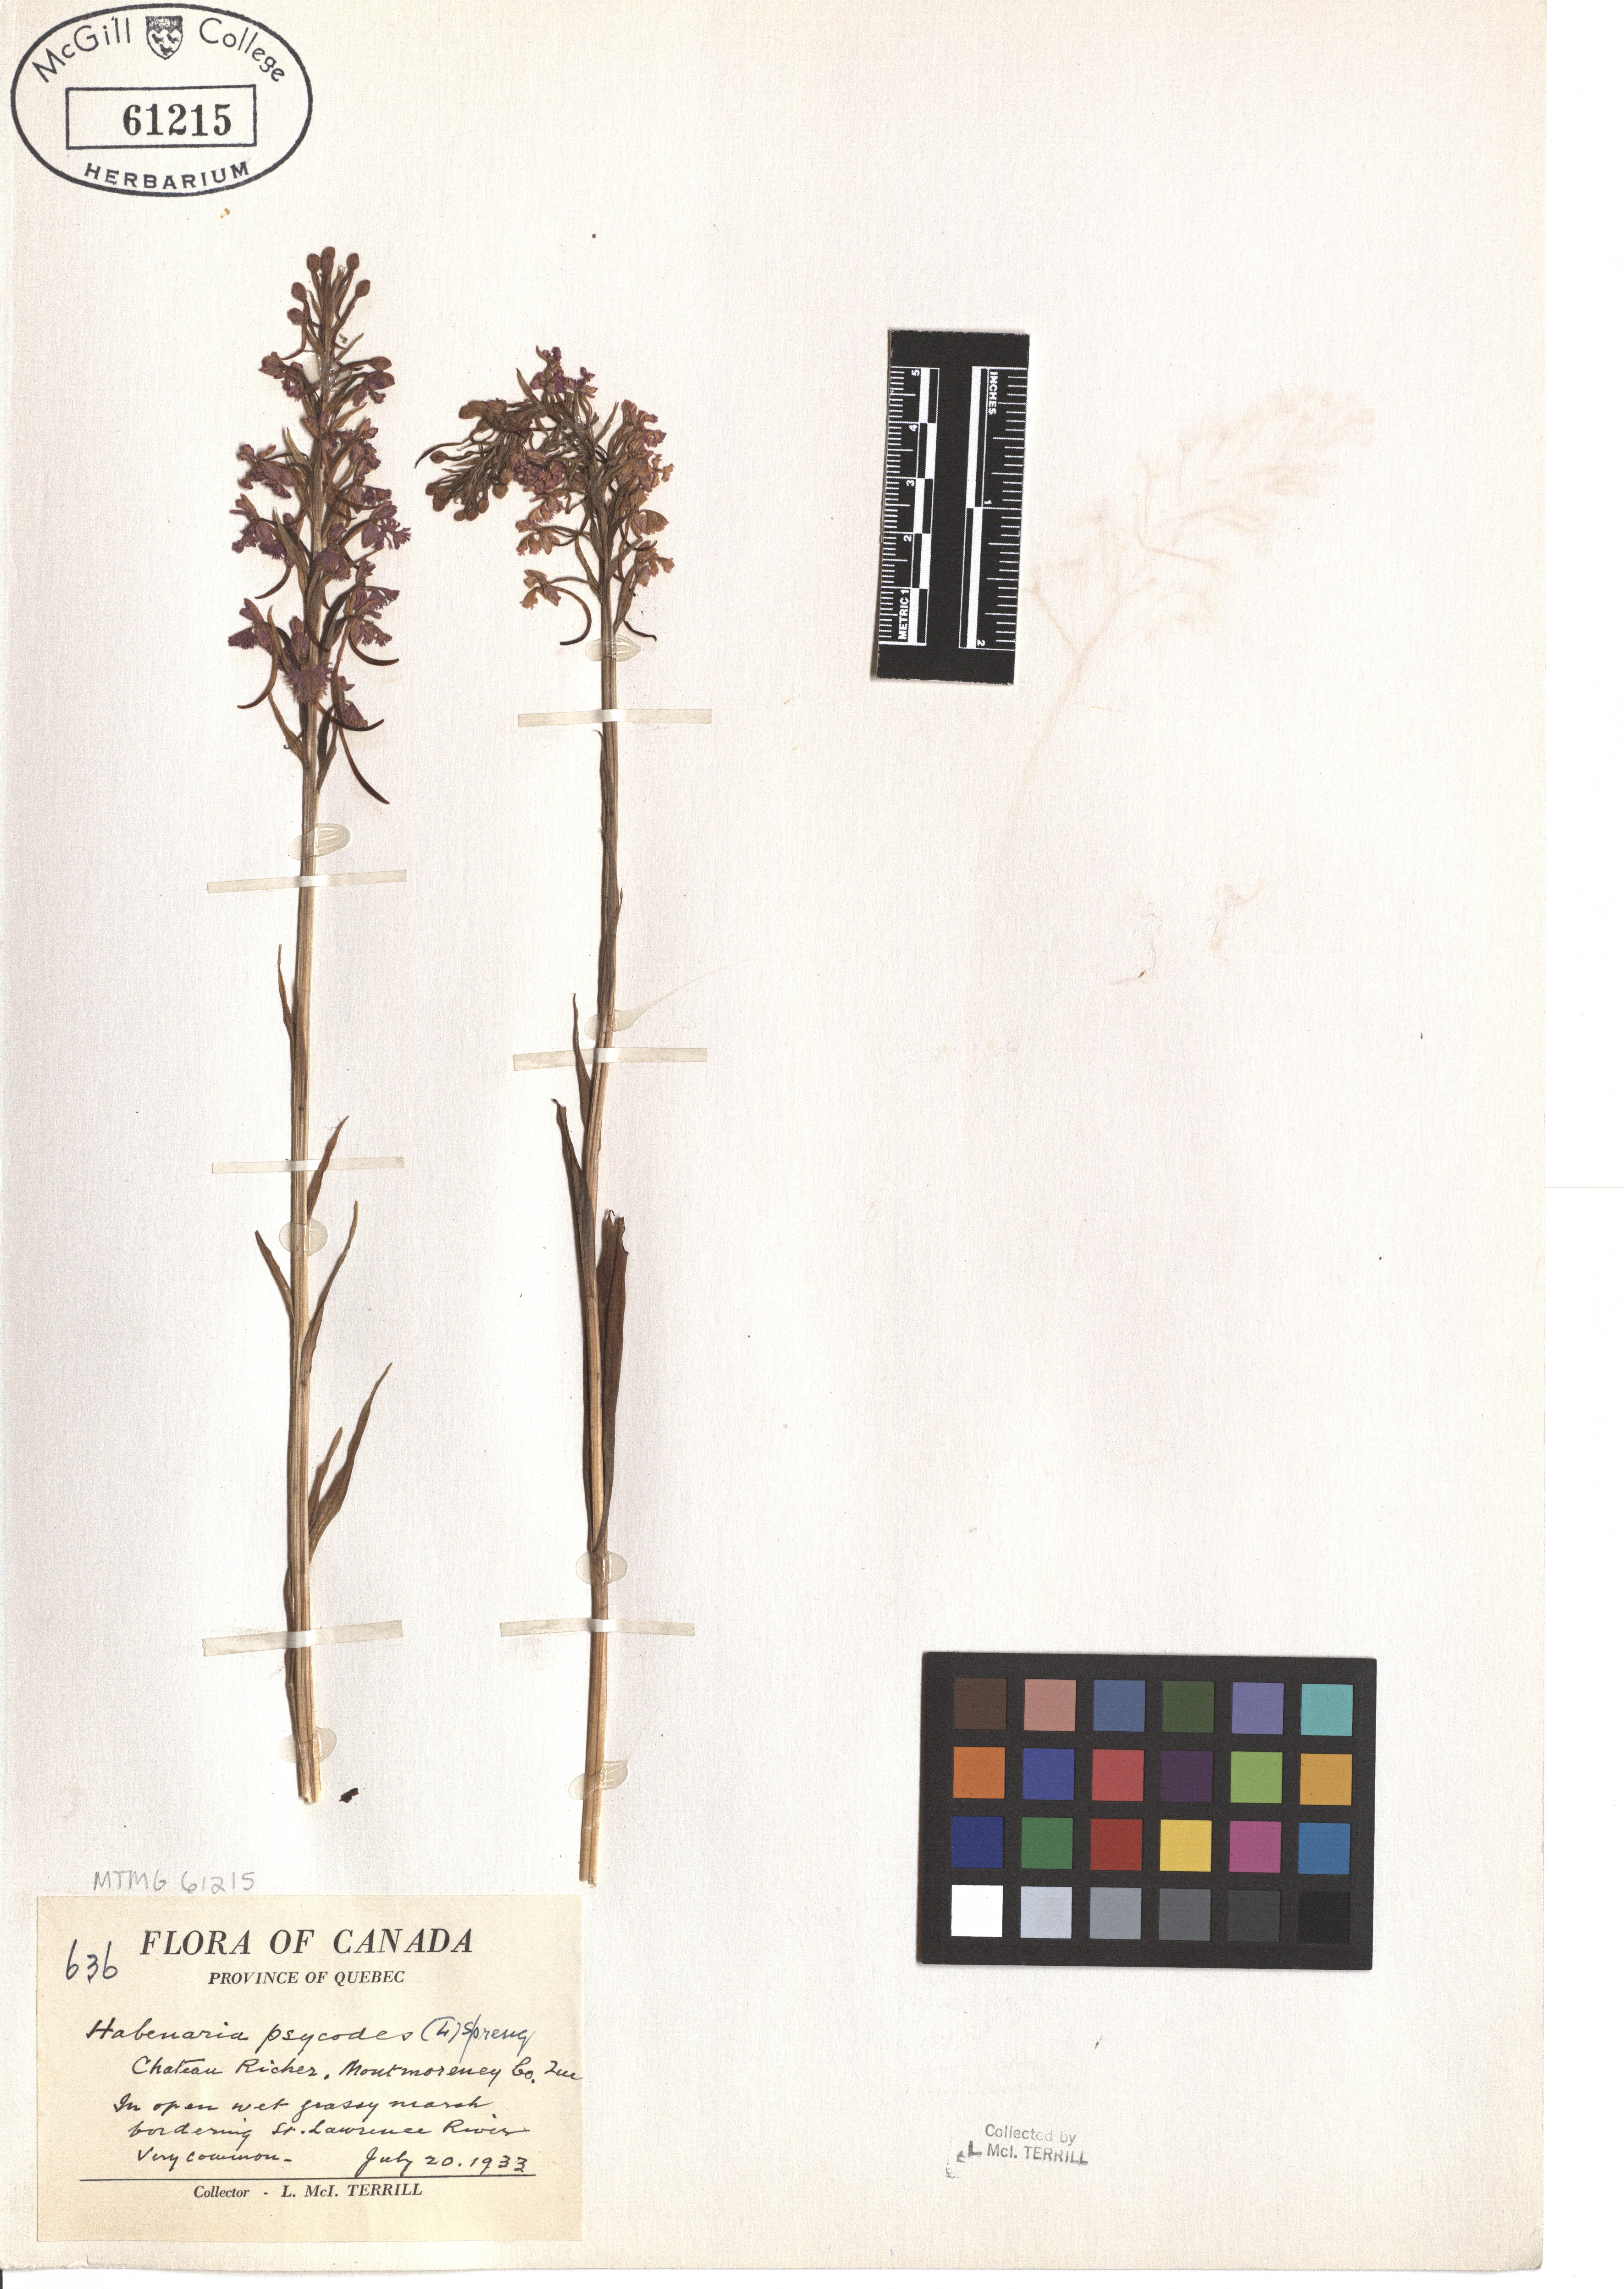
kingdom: Plantae
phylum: Tracheophyta
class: Liliopsida
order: Asparagales
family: Orchidaceae
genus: Platanthera
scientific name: Platanthera psycodes
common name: Lesser purple fringed orchid
